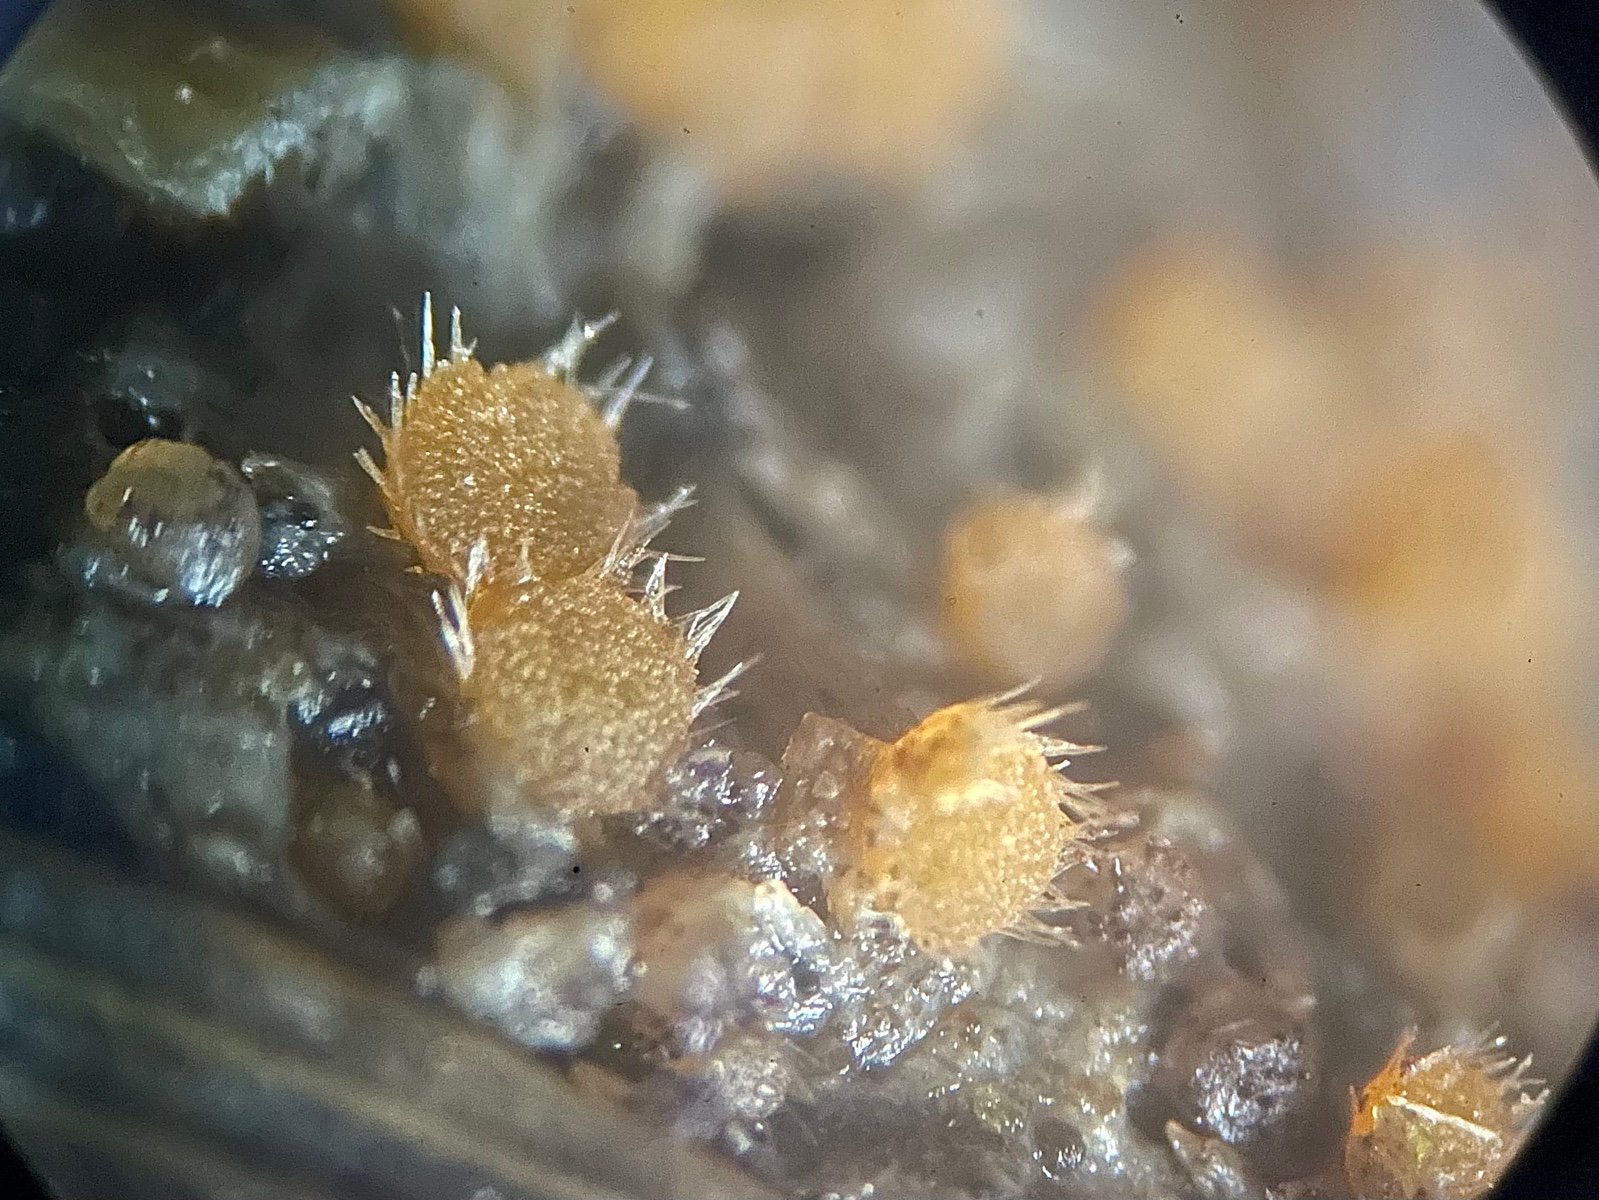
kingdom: Fungi
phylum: Ascomycota
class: Pezizomycetes
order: Pezizales
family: Ascodesmidaceae
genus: Lasiobolus
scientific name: Lasiobolus
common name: øjebæger
